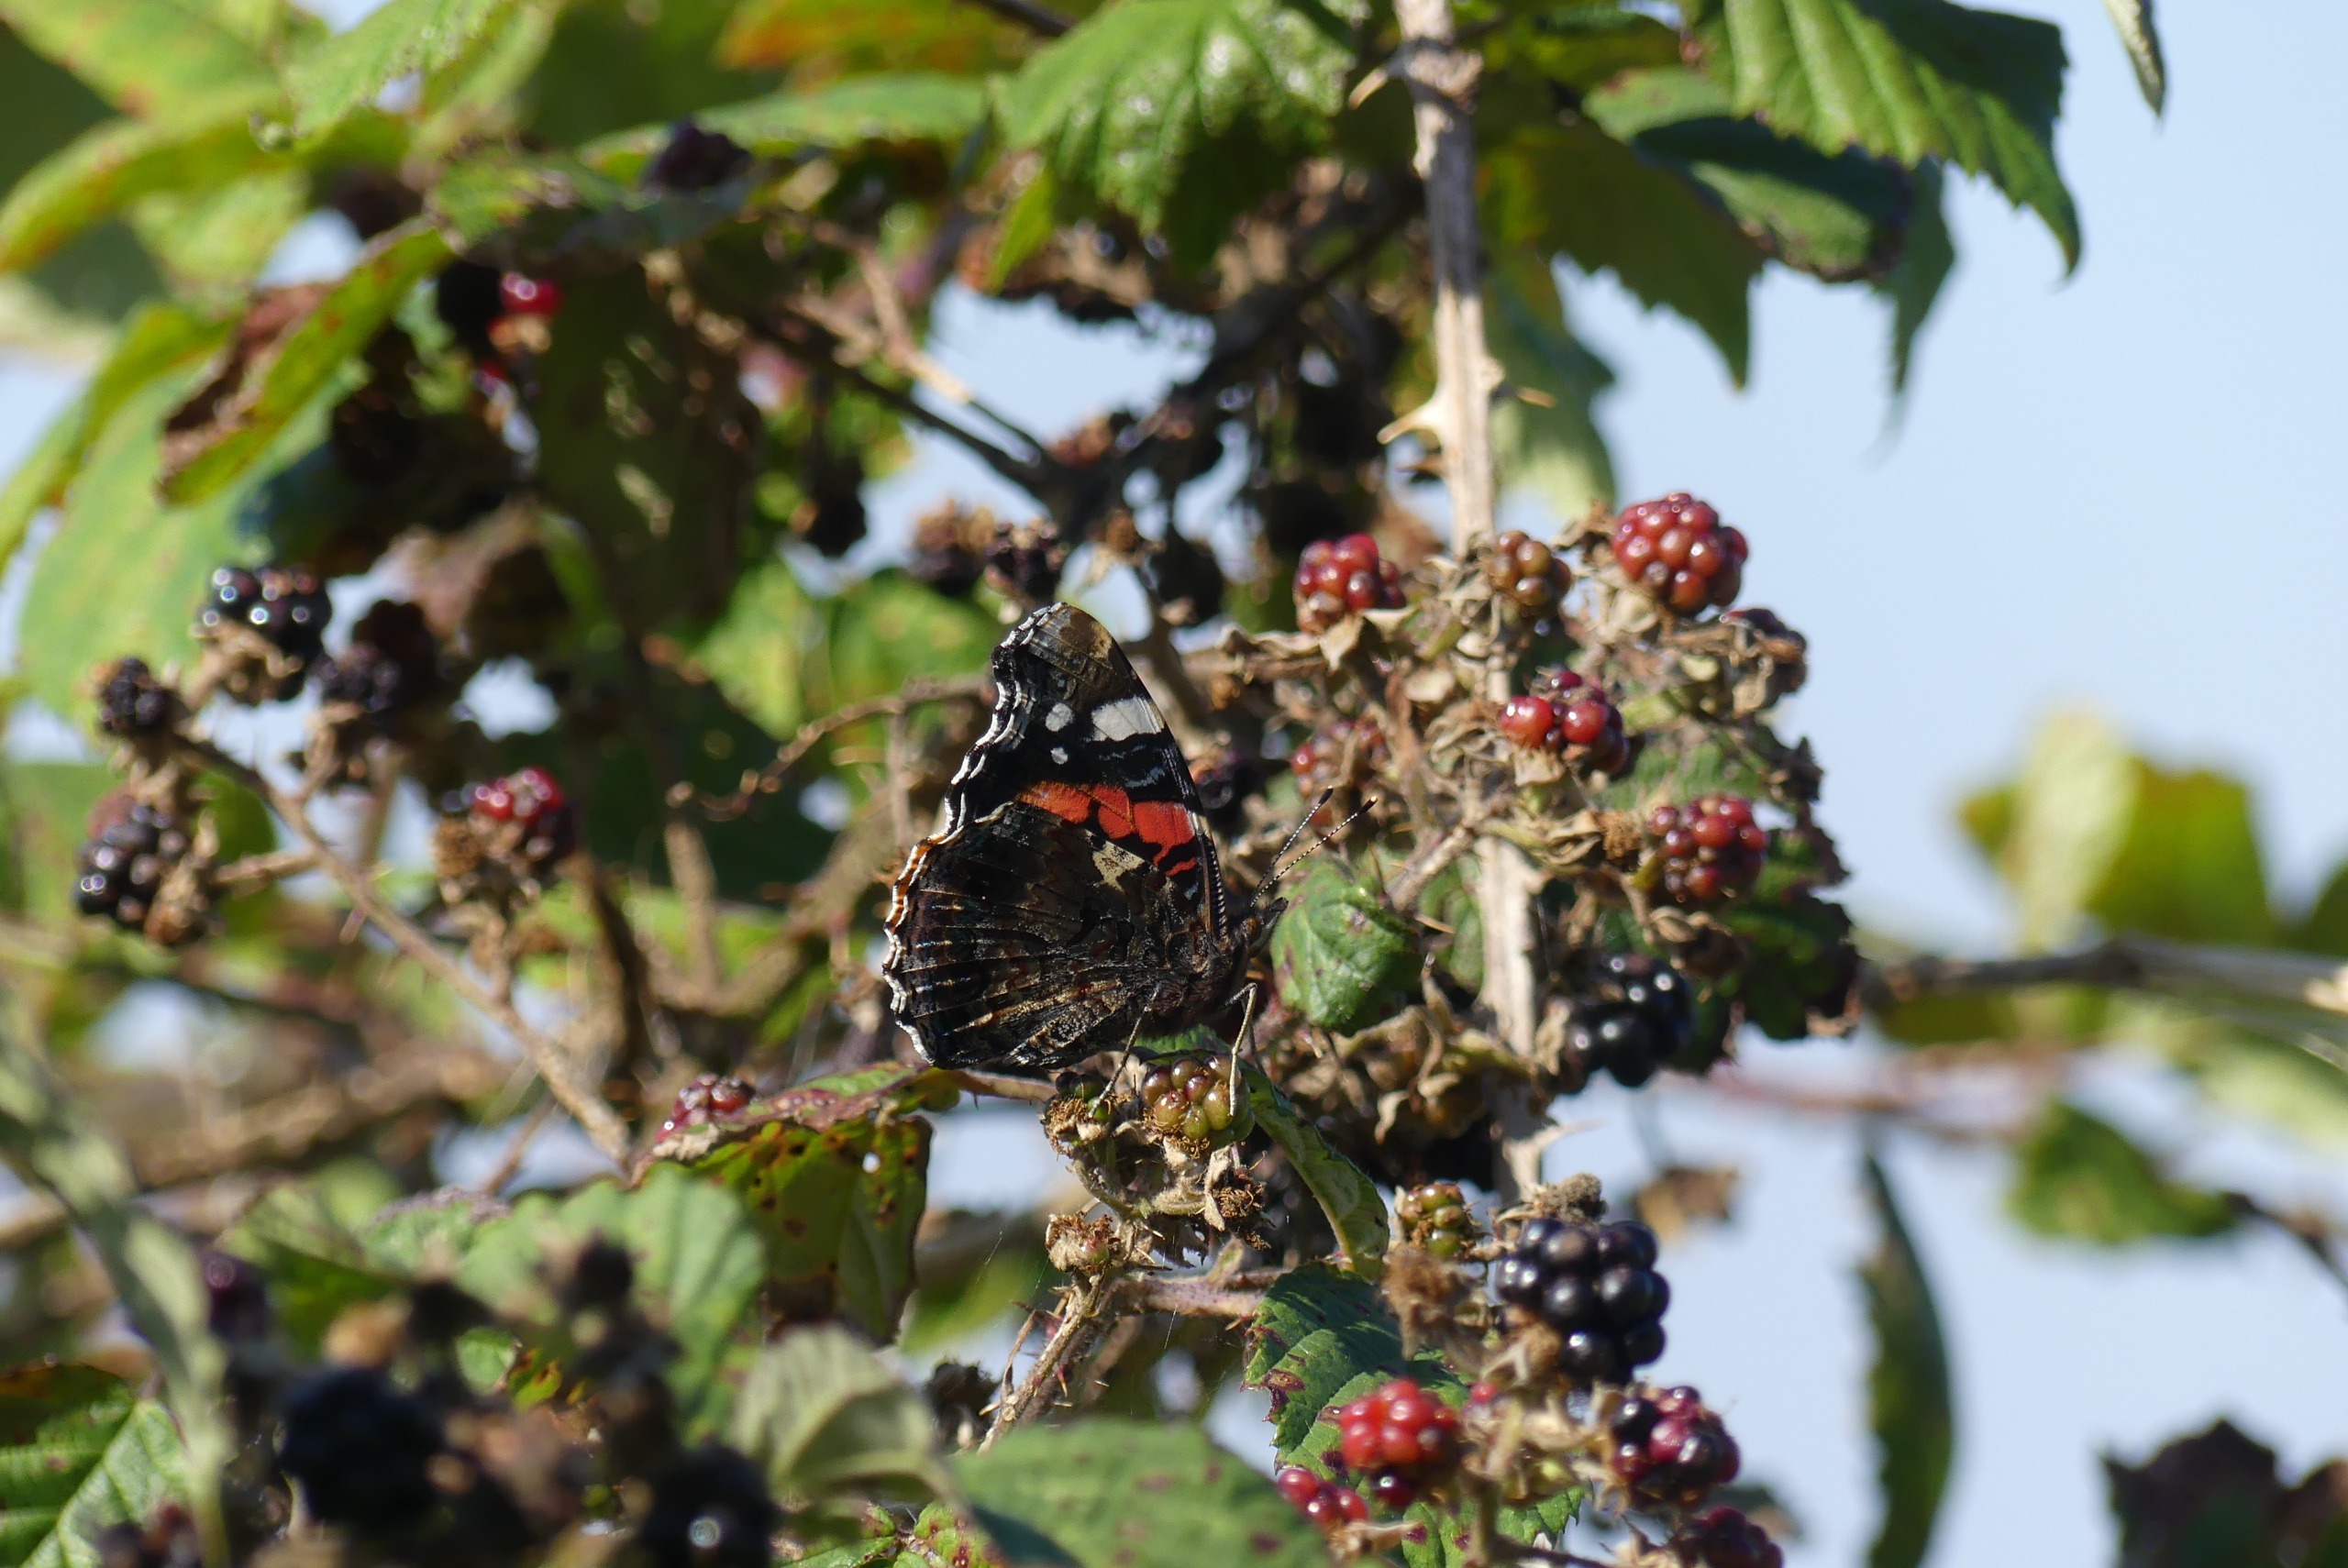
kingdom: Animalia
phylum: Arthropoda
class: Insecta
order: Lepidoptera
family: Nymphalidae
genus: Vanessa
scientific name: Vanessa atalanta
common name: Admiral
